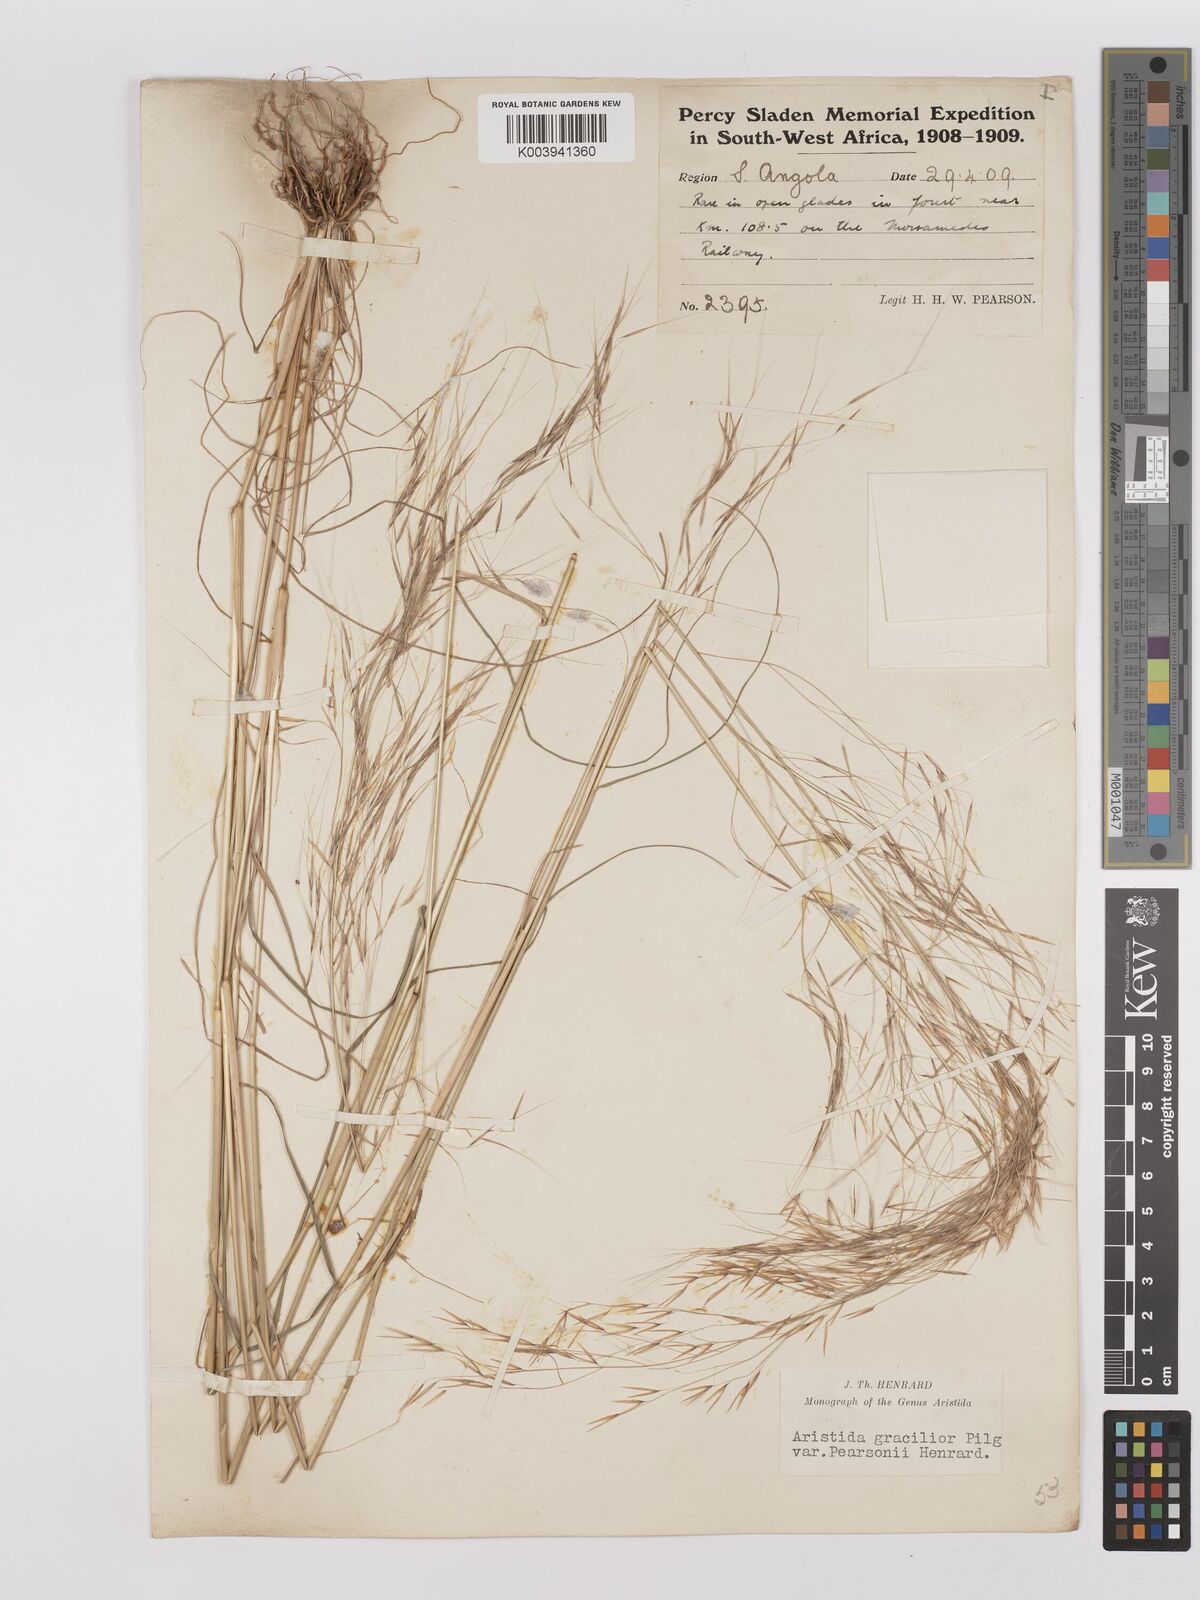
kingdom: Plantae
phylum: Tracheophyta
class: Liliopsida
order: Poales
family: Poaceae
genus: Stipagrostis
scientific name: Stipagrostis hirtigluma
